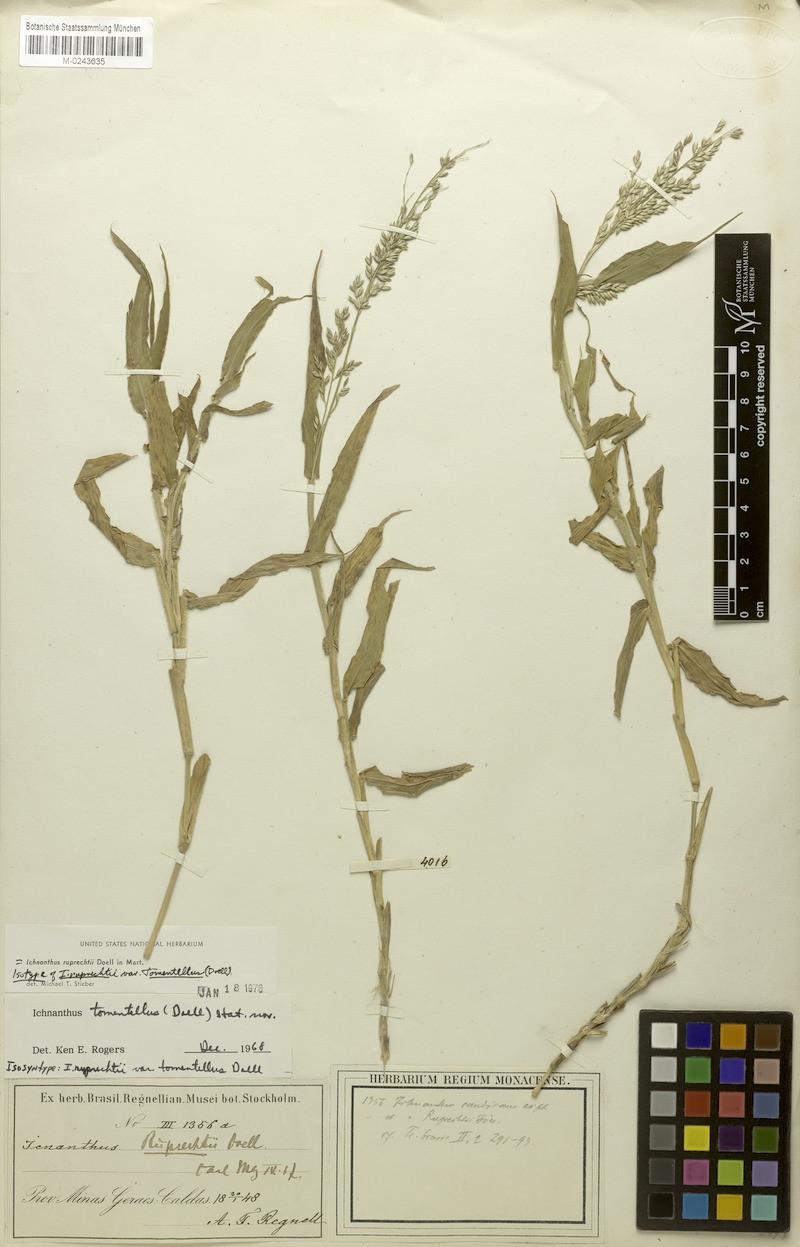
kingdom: Plantae
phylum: Tracheophyta
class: Liliopsida
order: Poales
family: Poaceae
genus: Ichnanthus
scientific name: Ichnanthus ruprechtii
